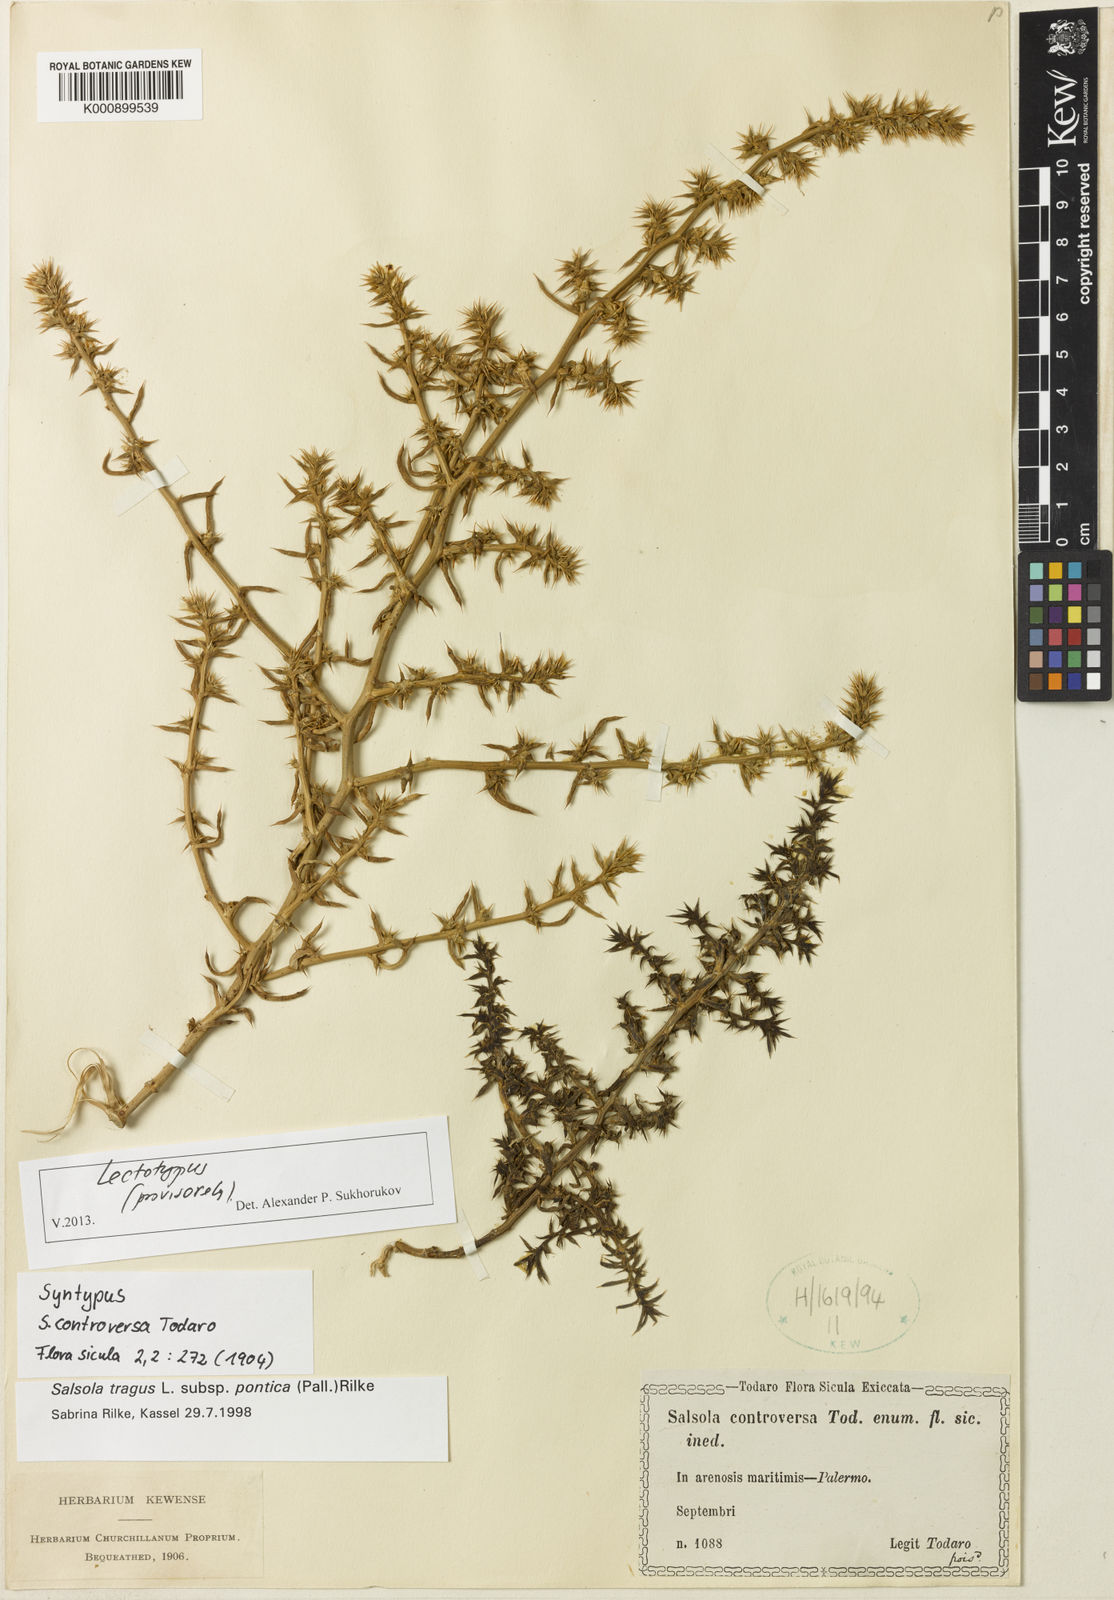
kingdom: Plantae
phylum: Tracheophyta
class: Magnoliopsida
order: Caryophyllales
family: Amaranthaceae
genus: Salsola
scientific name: Salsola kali
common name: Saltwort
